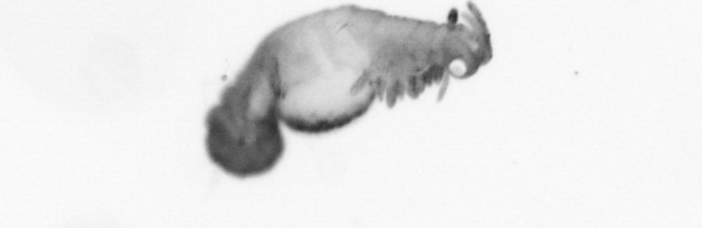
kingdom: Animalia
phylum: Annelida
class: Polychaeta
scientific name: Polychaeta
